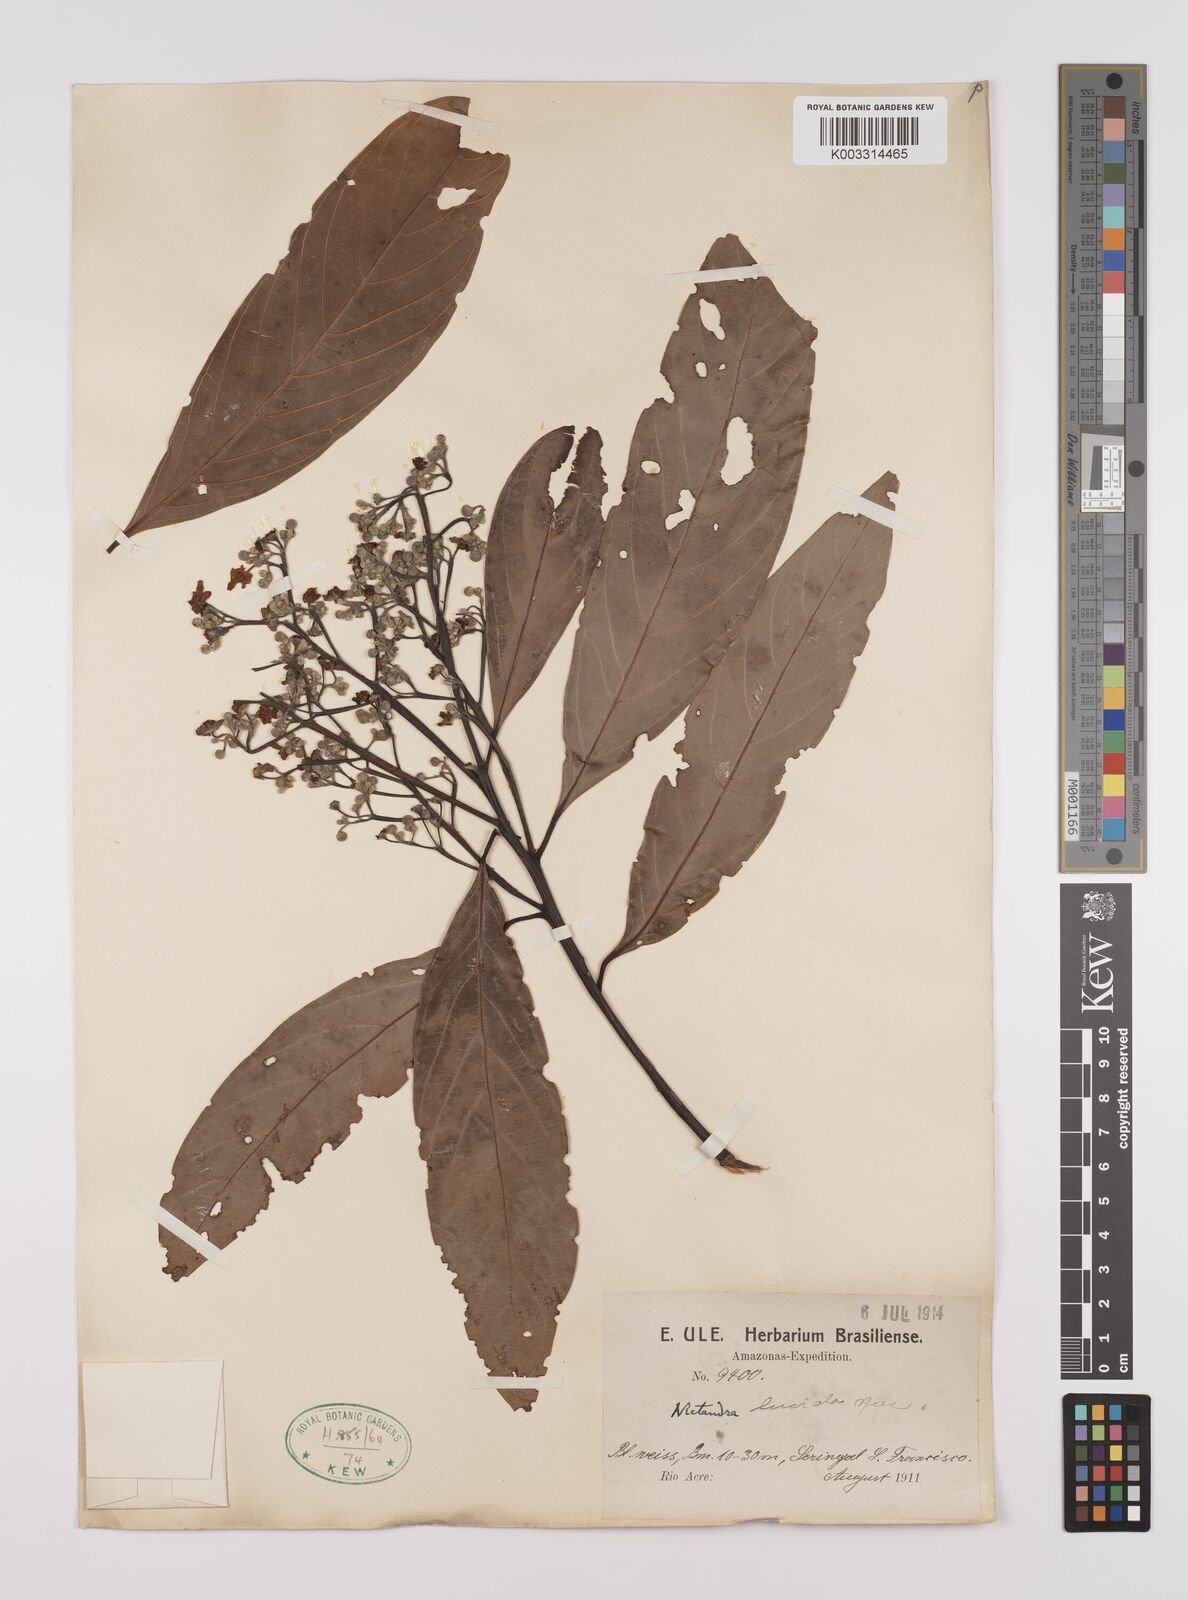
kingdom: Plantae
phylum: Tracheophyta
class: Magnoliopsida
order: Laurales
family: Lauraceae
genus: Endlicheria
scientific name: Endlicheria paniculata
